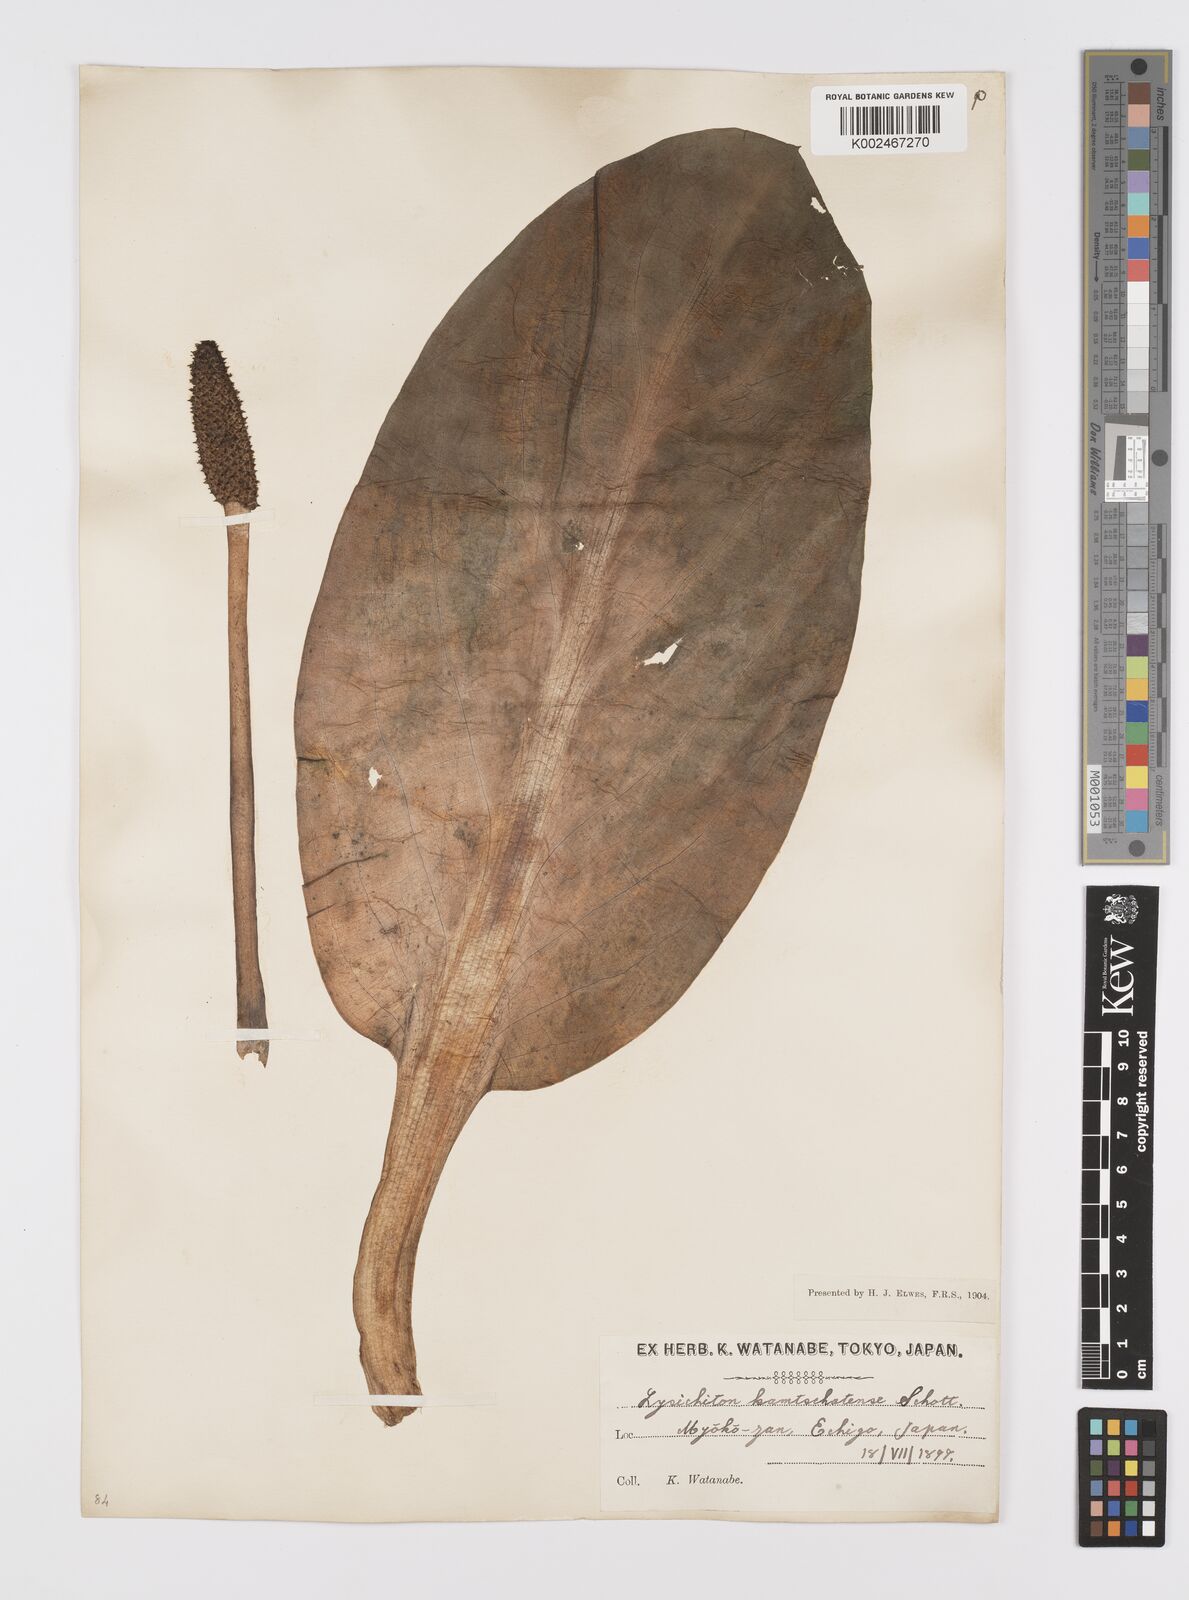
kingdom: Plantae
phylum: Tracheophyta
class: Liliopsida
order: Alismatales
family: Araceae
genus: Lysichiton
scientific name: Lysichiton camtschatcensis
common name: Asian skunk-cabbage
